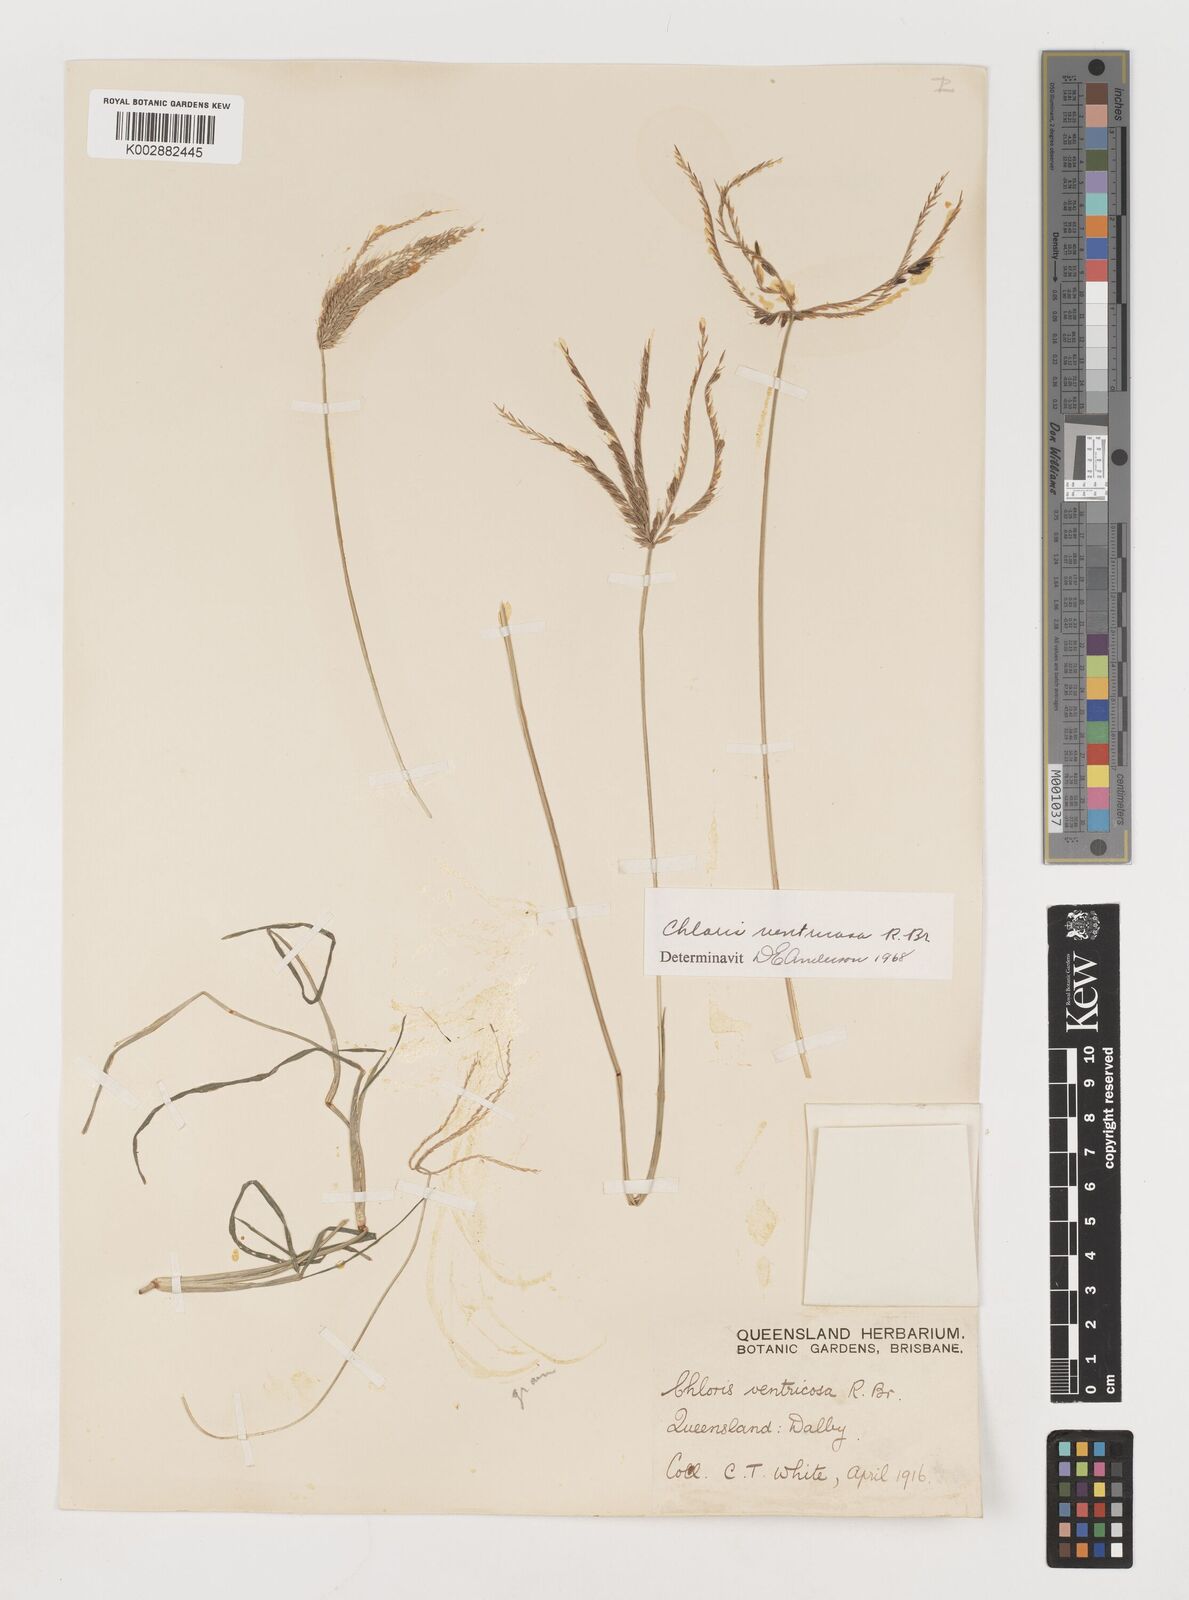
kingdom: Plantae
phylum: Tracheophyta
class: Liliopsida
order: Poales
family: Poaceae
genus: Chloris
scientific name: Chloris ventricosa
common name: Australian windmill grass
